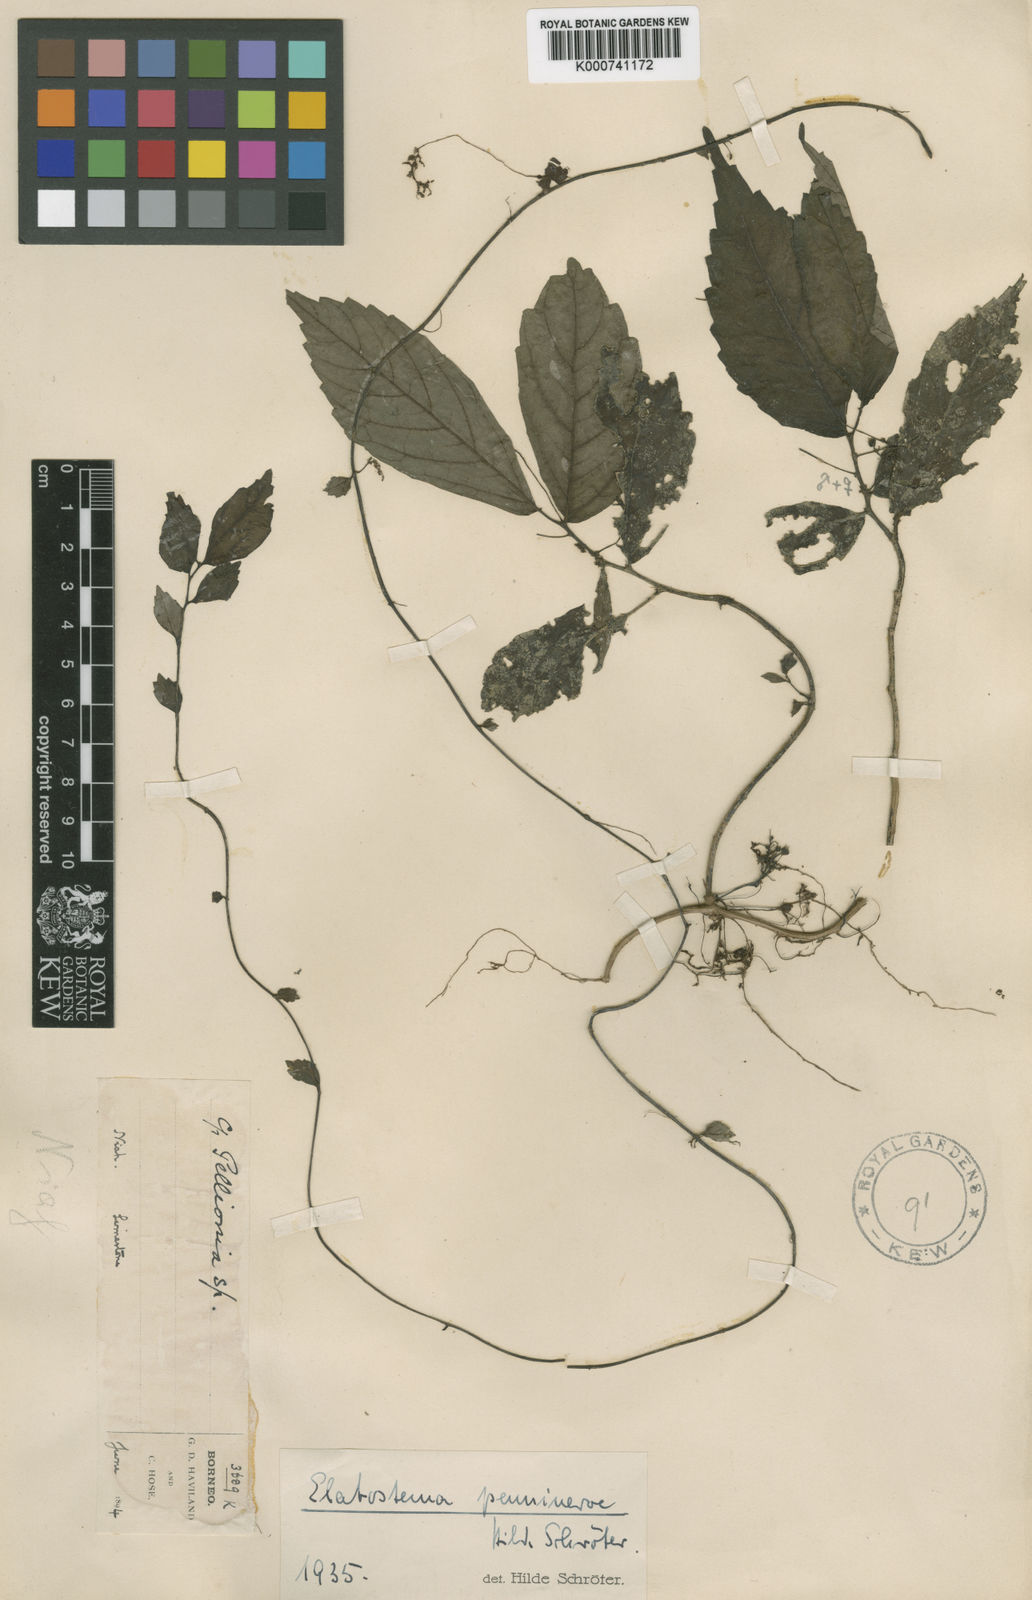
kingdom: Plantae
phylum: Tracheophyta
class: Magnoliopsida
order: Rosales
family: Urticaceae
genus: Elatostema
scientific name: Elatostema penninerve
